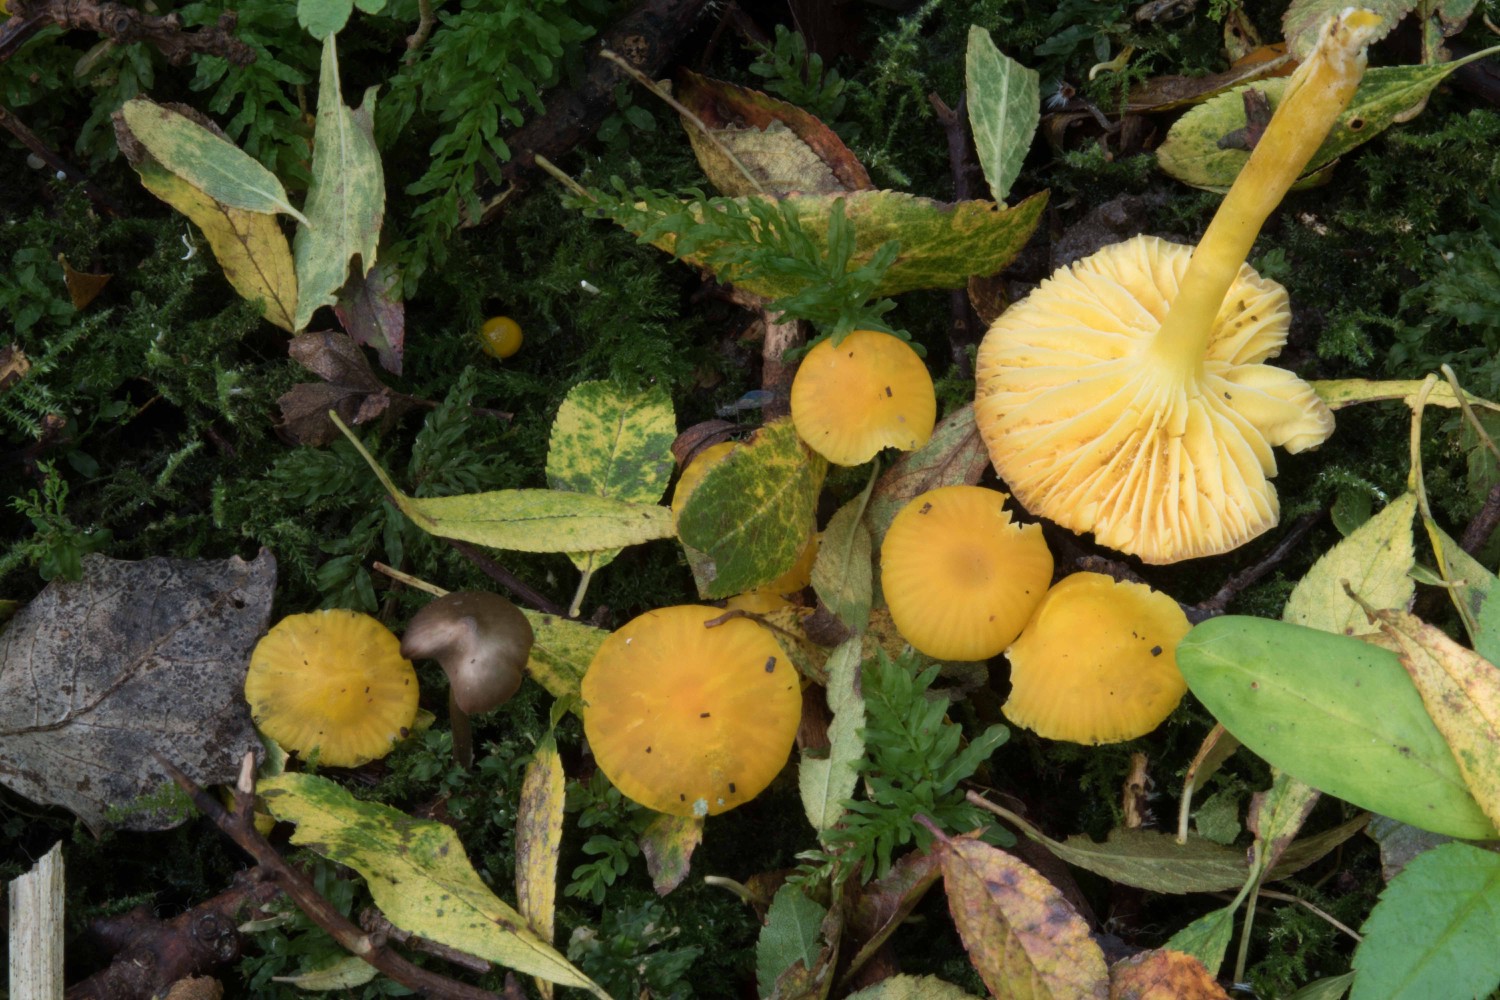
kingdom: Fungi
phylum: Basidiomycota
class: Agaricomycetes
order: Agaricales
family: Hygrophoraceae
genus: Hygrocybe
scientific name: Hygrocybe ceracea
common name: voksgul vokshat
